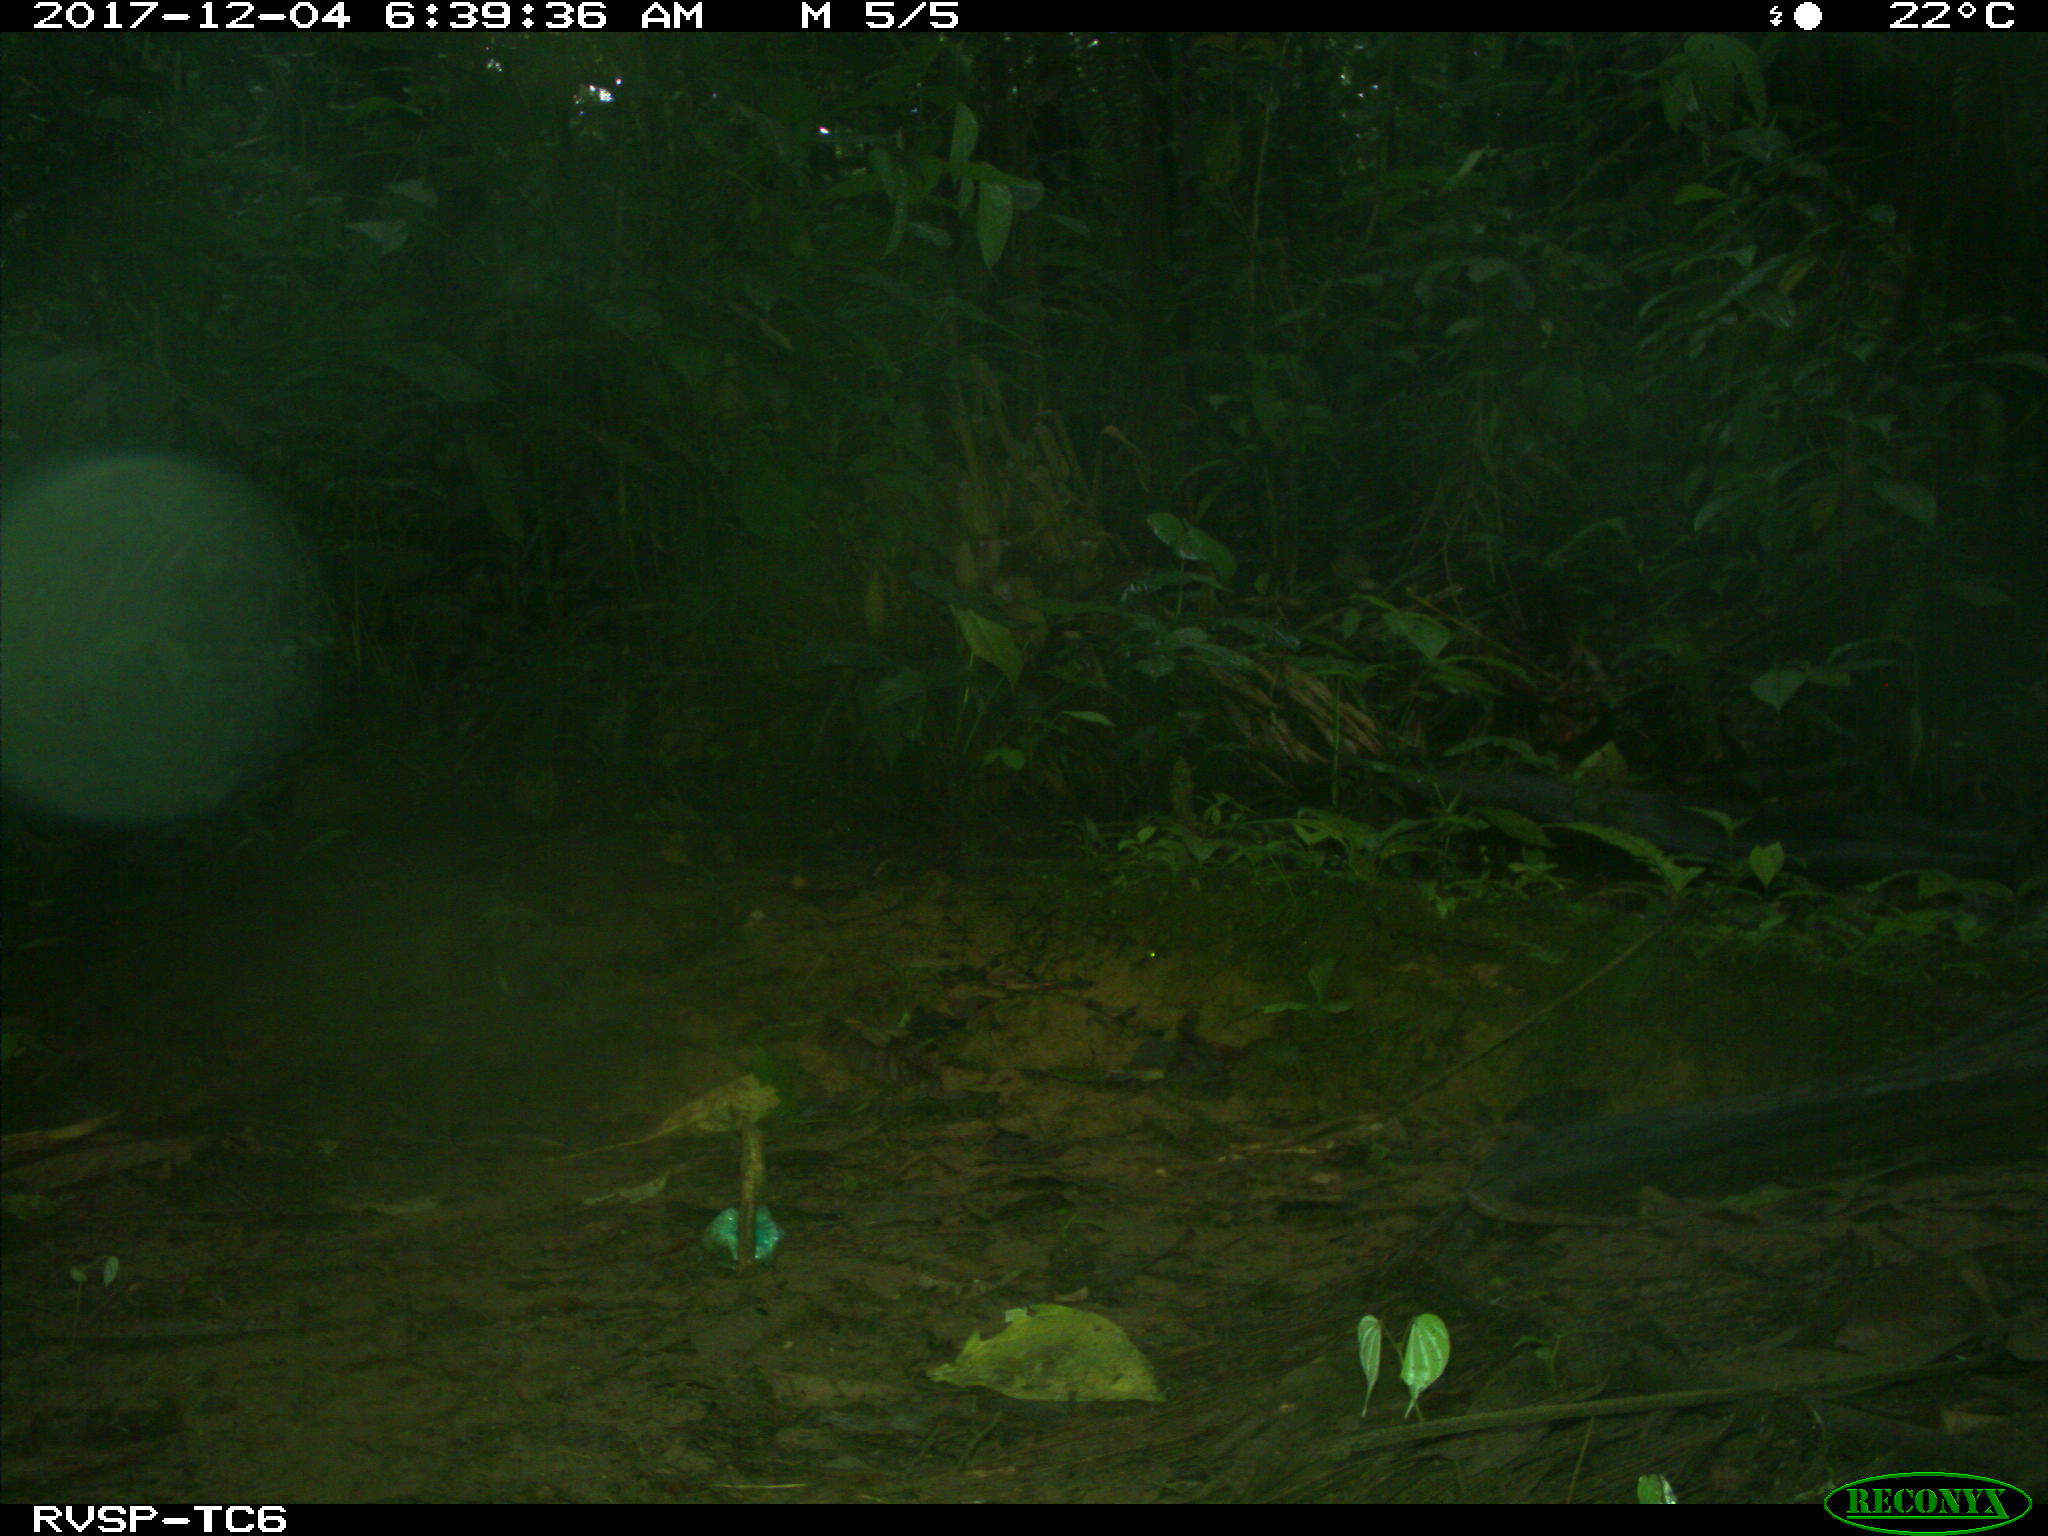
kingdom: Animalia
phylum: Chordata
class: Mammalia
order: Rodentia
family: Dasyproctidae
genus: Dasyprocta
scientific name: Dasyprocta punctata
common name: Central american agouti
